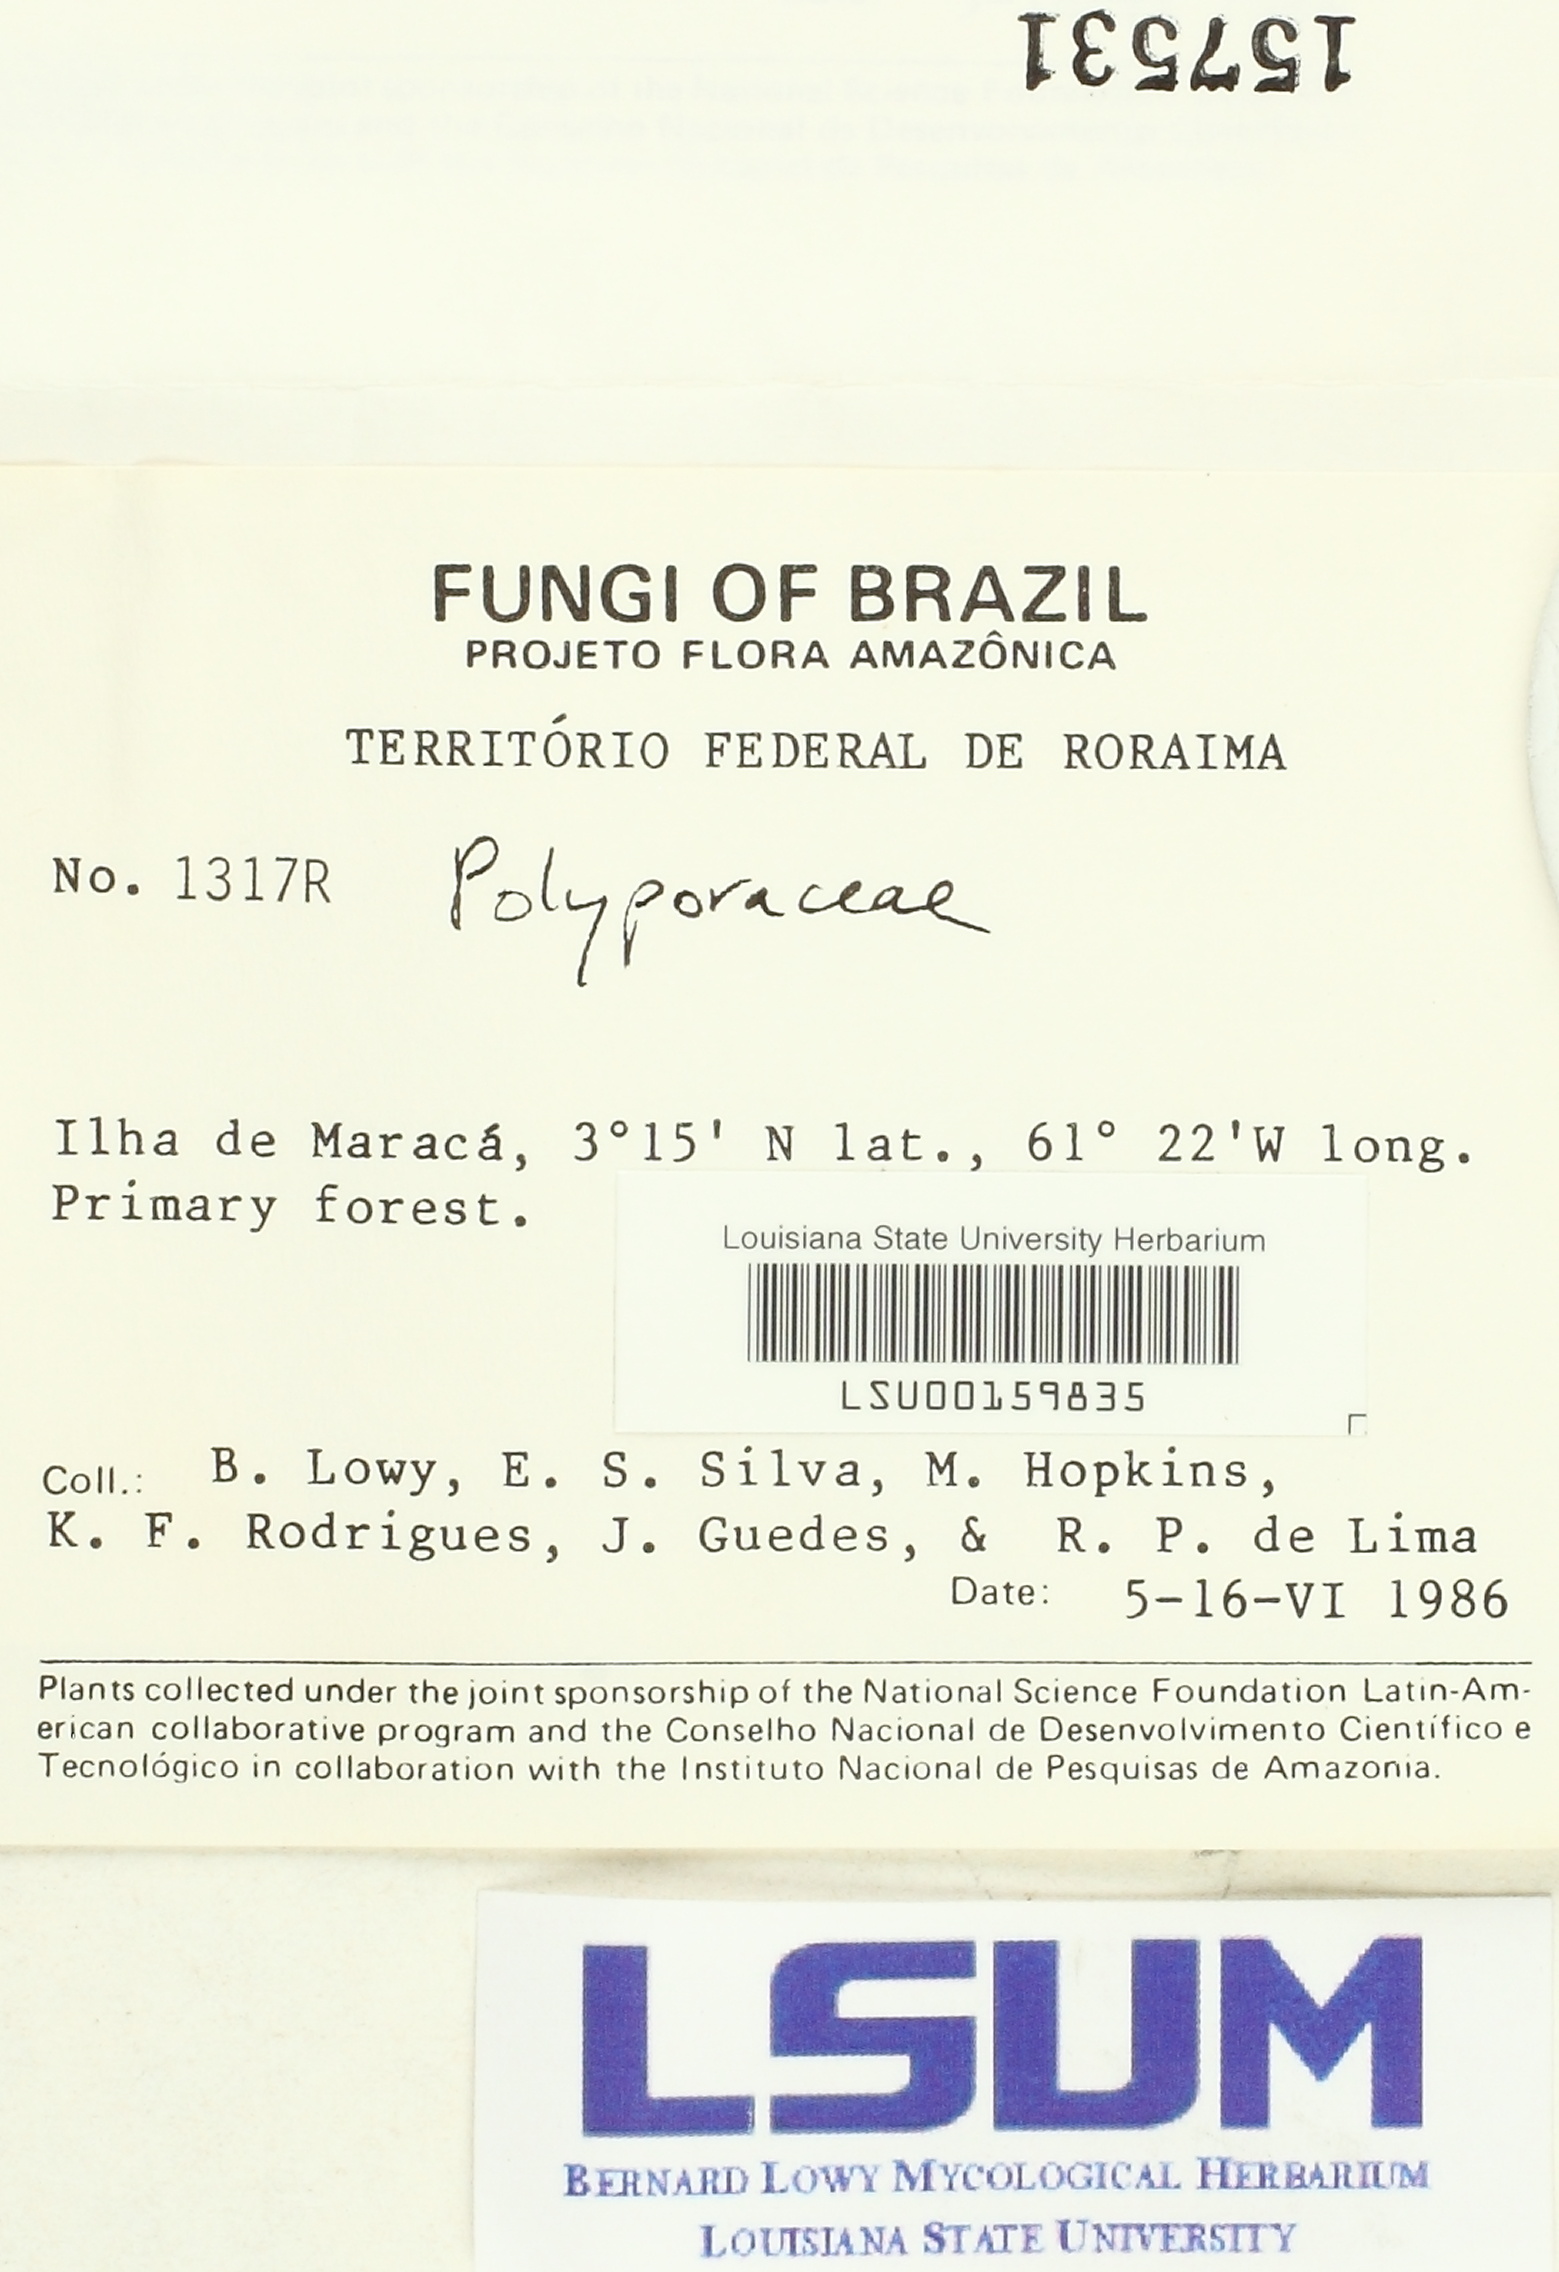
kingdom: Fungi
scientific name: Fungi
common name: Fungi
